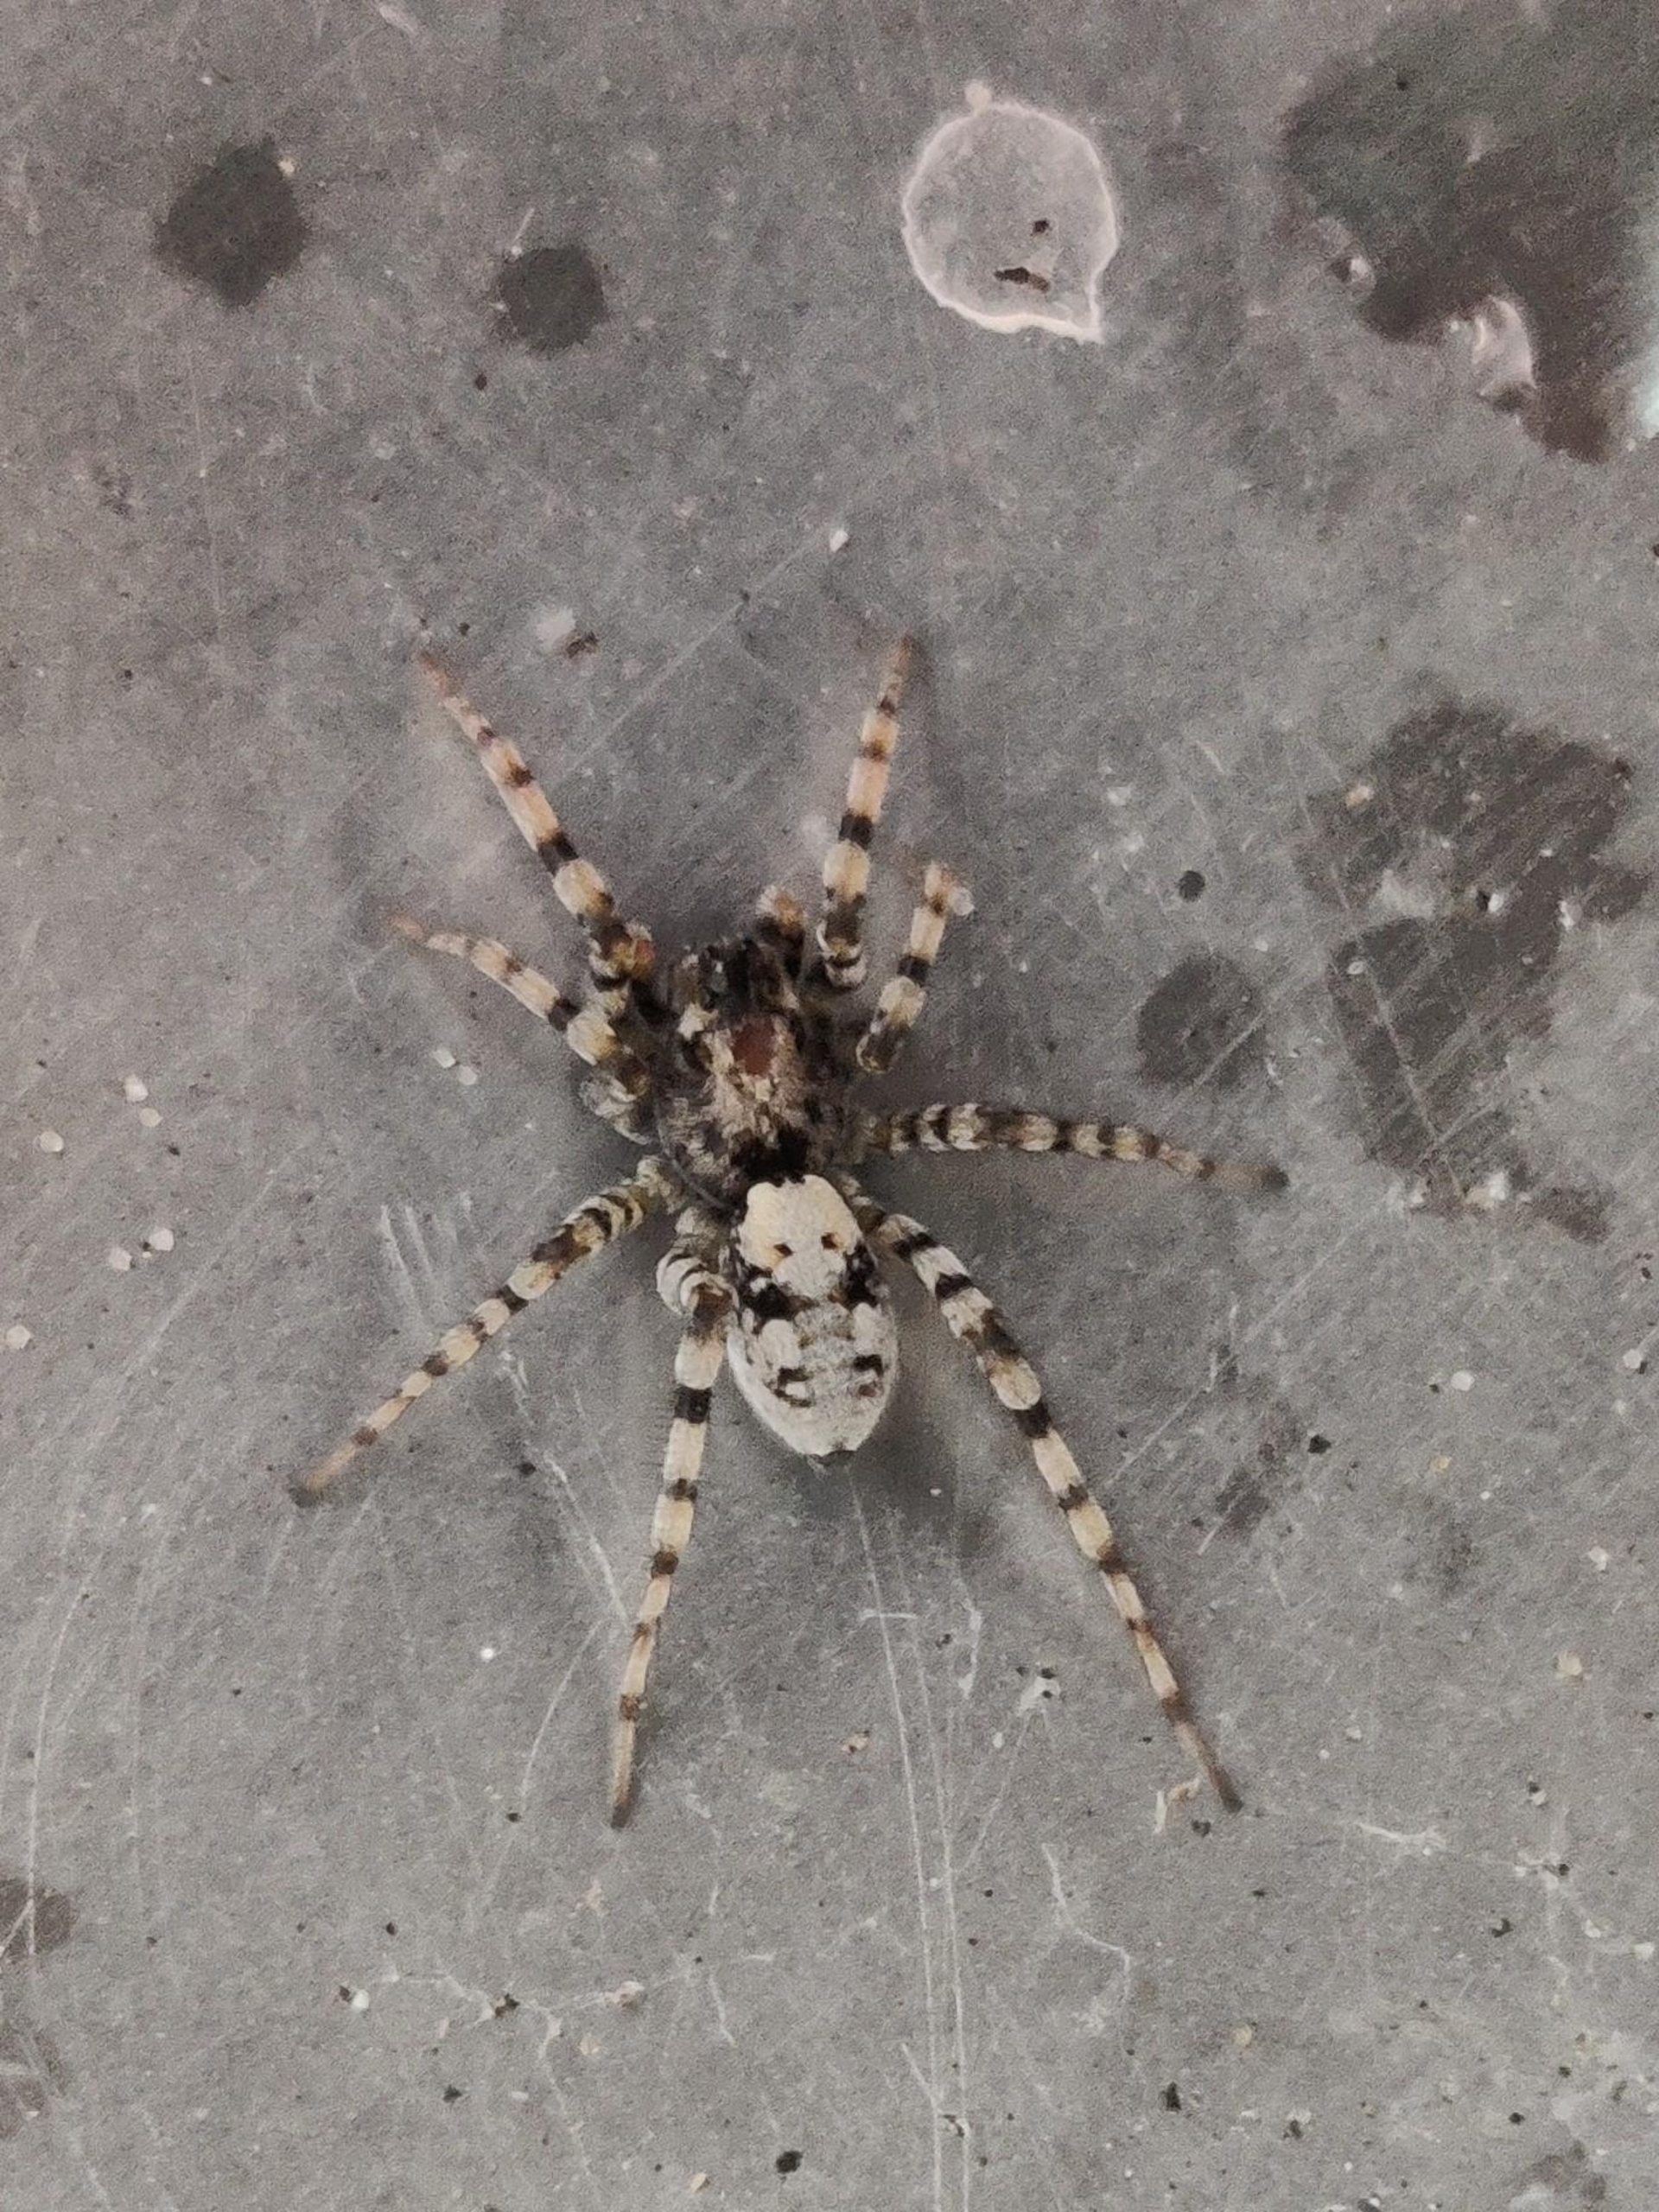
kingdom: Animalia
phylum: Arthropoda
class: Arachnida
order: Araneae
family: Lycosidae
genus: Arctosa
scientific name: Arctosa perita
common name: Klitgraveedderkop
